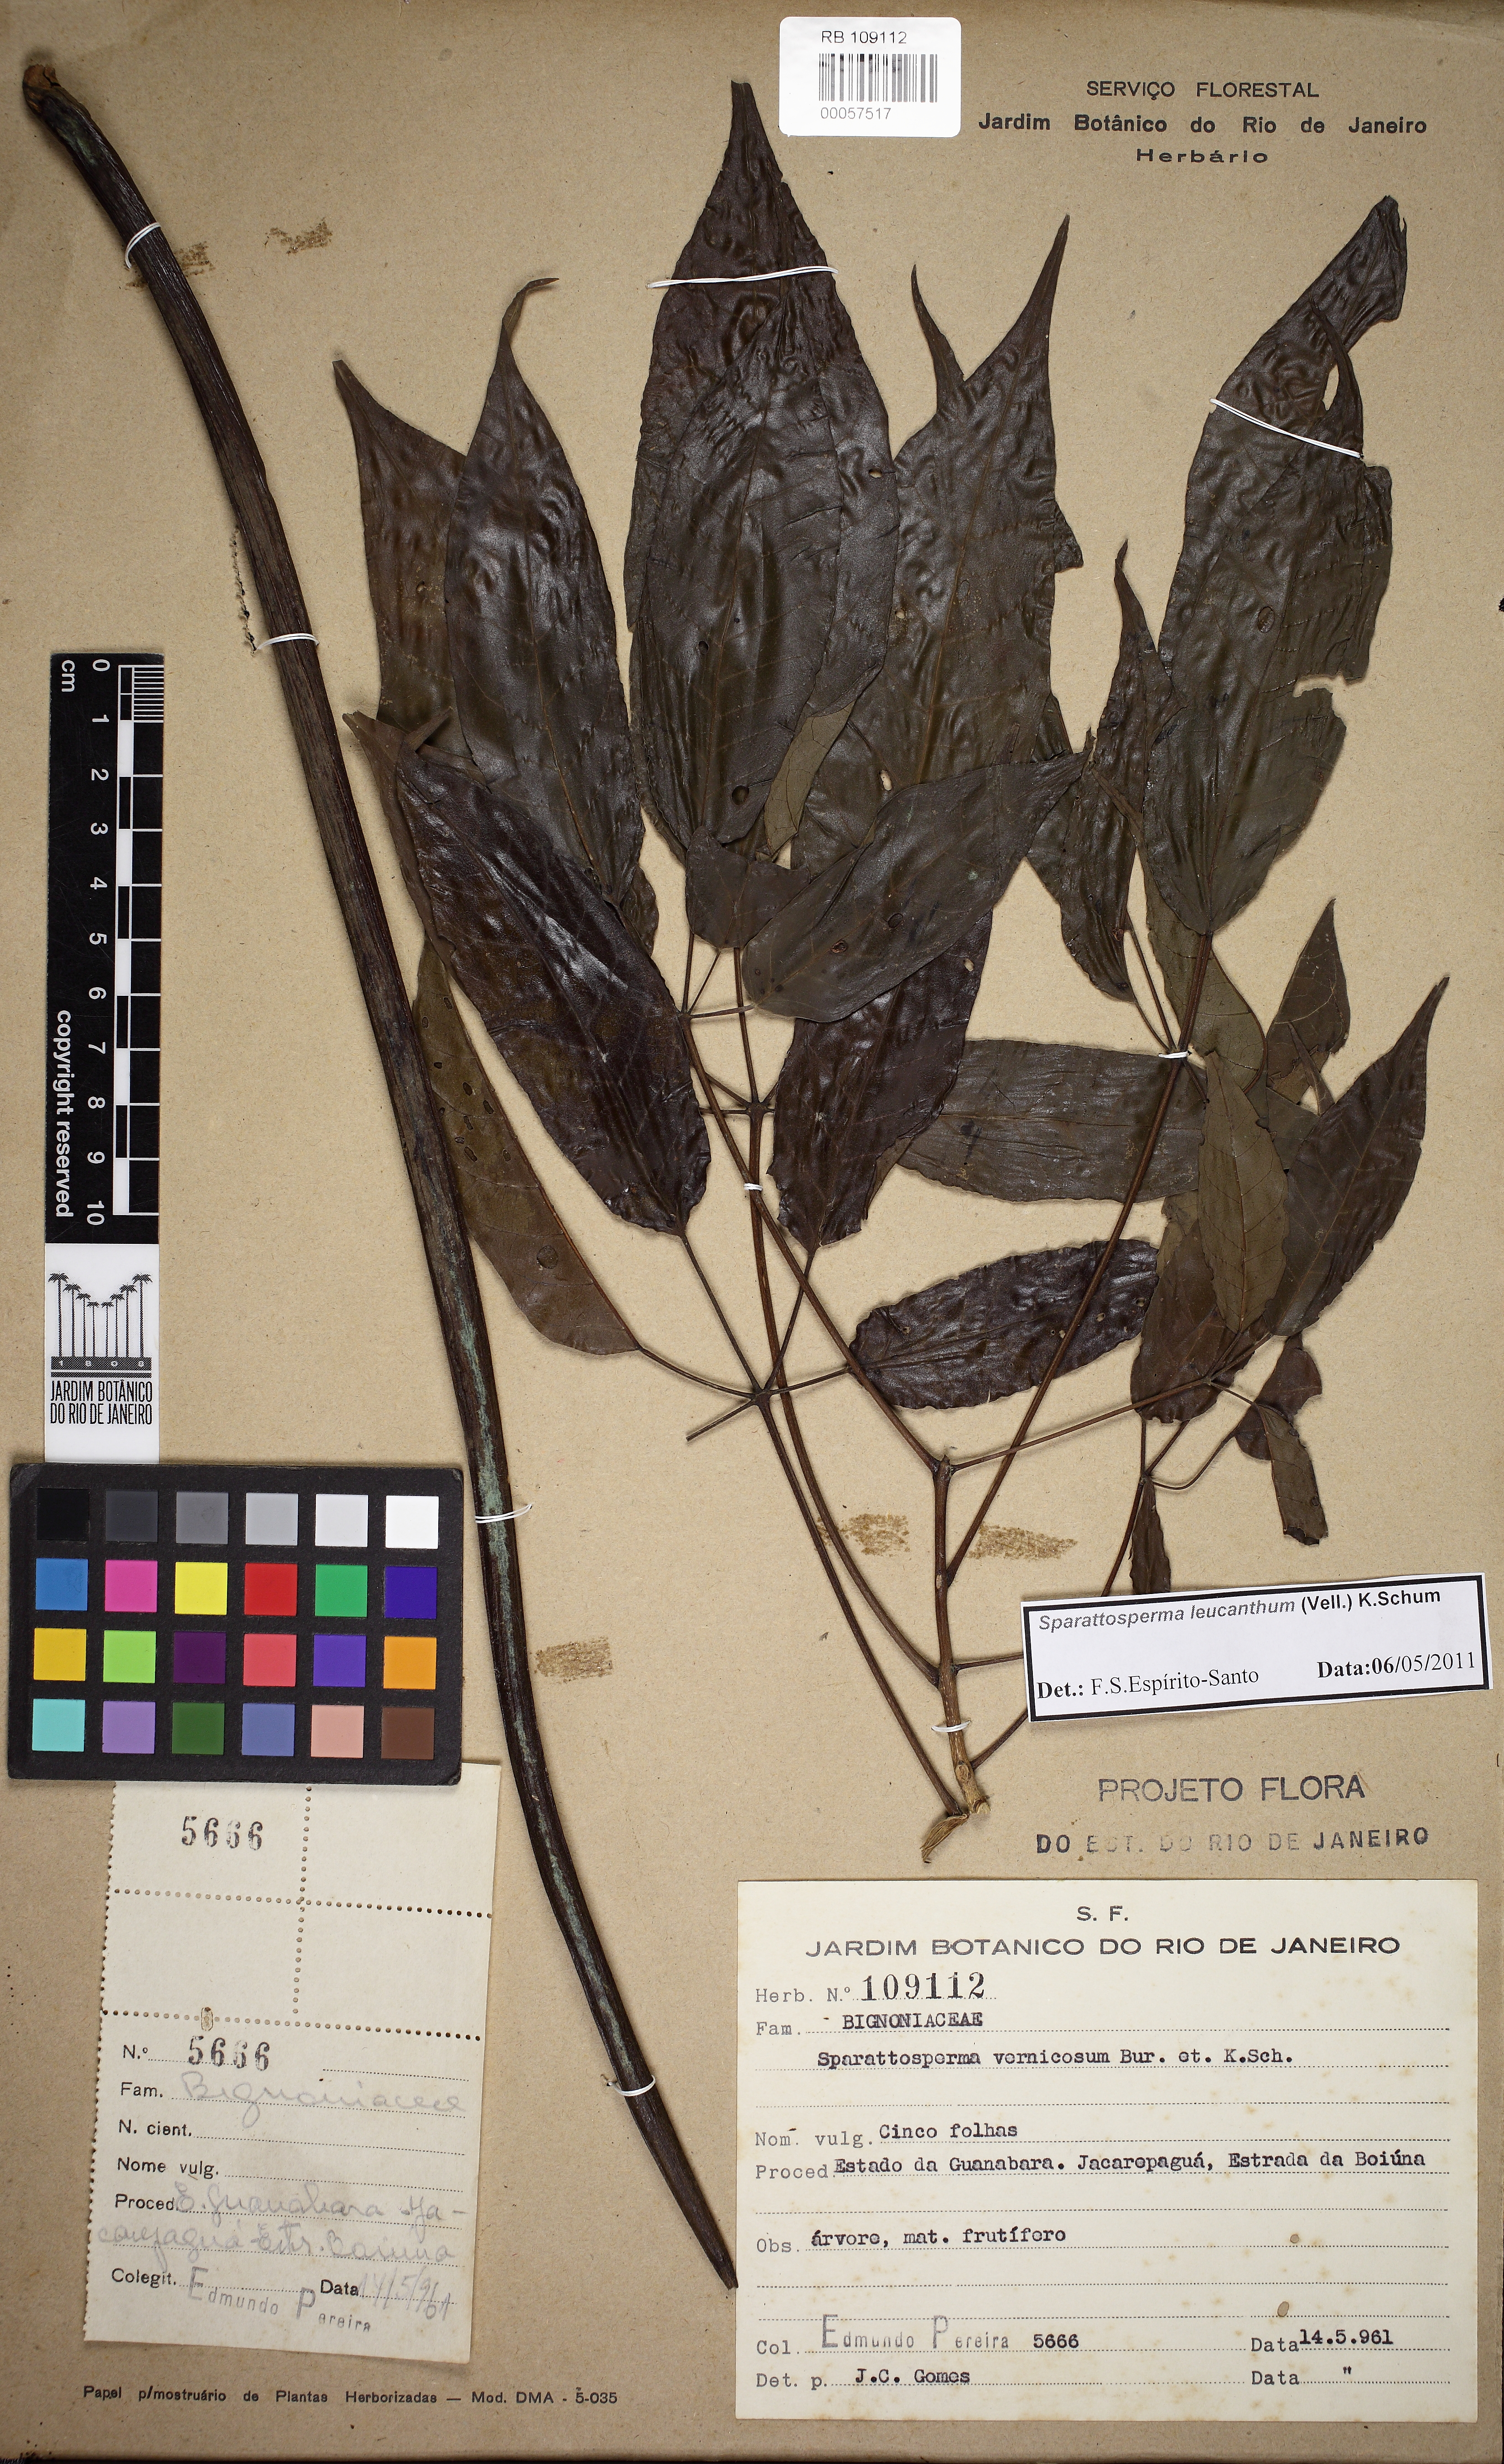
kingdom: Plantae
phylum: Tracheophyta
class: Magnoliopsida
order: Lamiales
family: Bignoniaceae
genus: Sparattosperma
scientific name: Sparattosperma leucanthum
